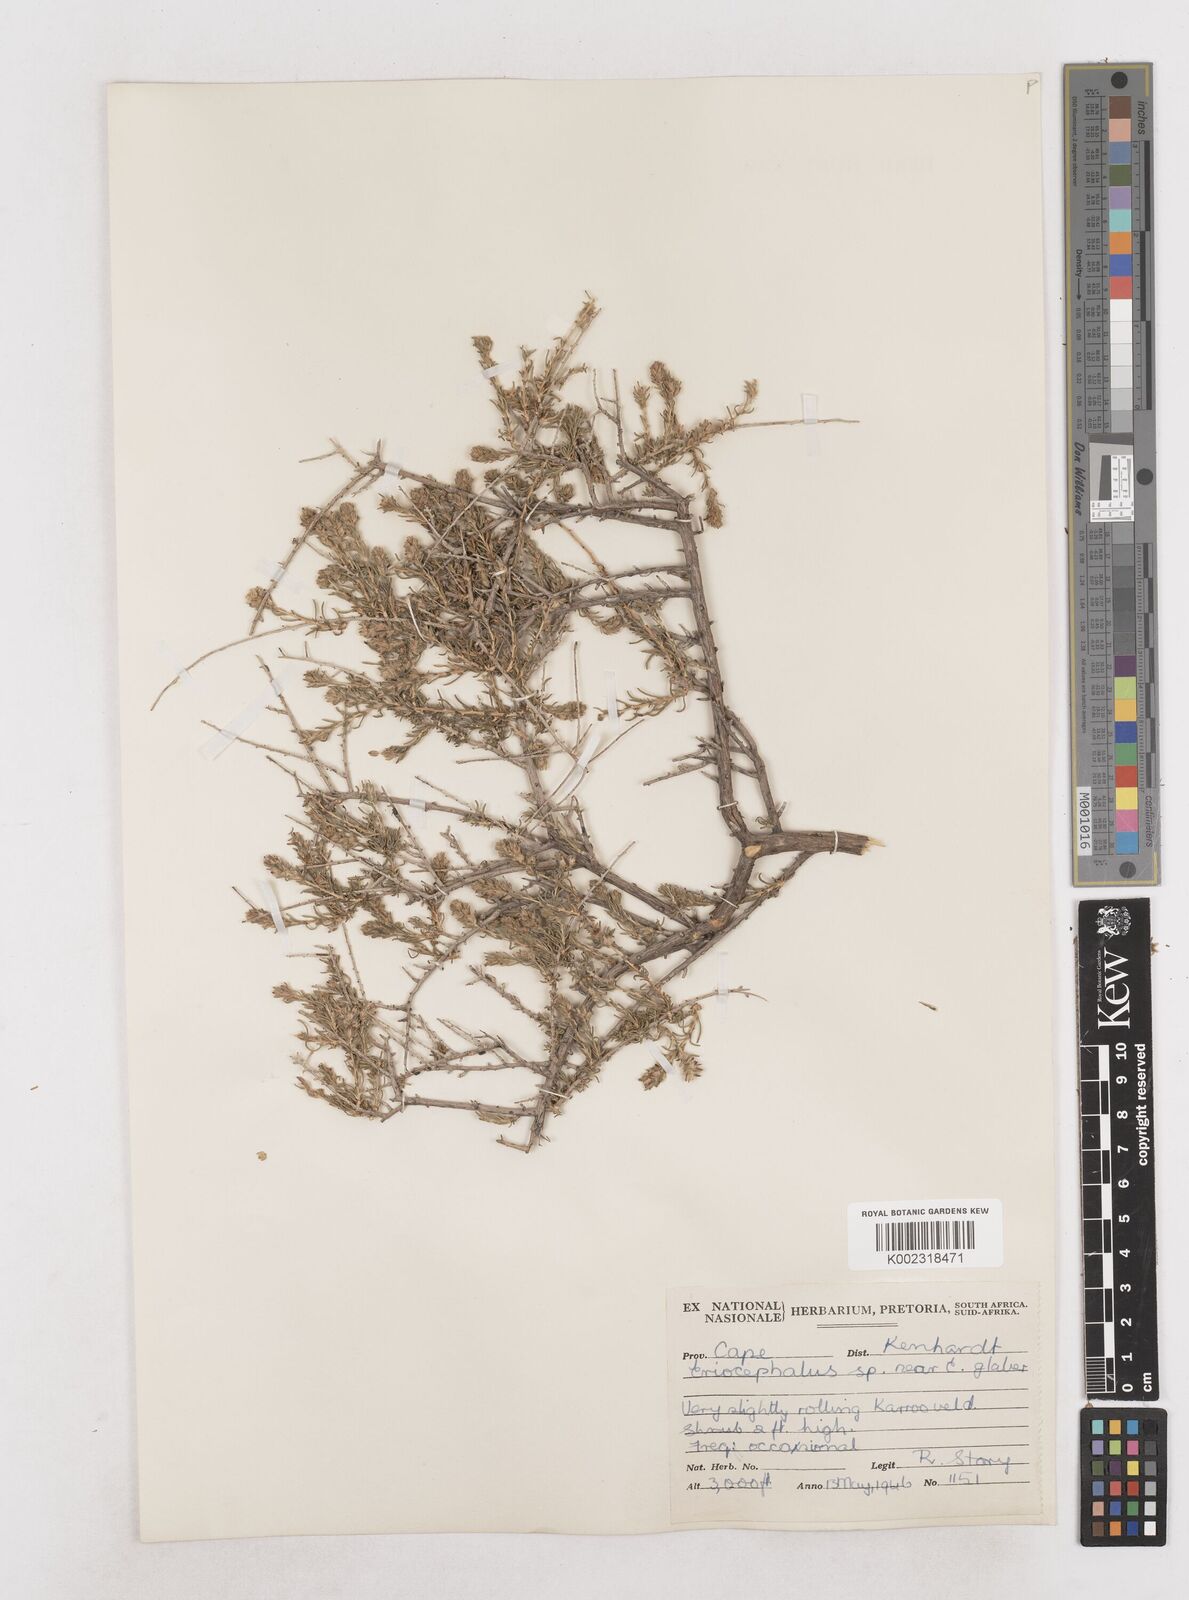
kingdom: Plantae
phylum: Tracheophyta
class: Magnoliopsida
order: Asterales
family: Asteraceae
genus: Eriocephalus
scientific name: Eriocephalus
